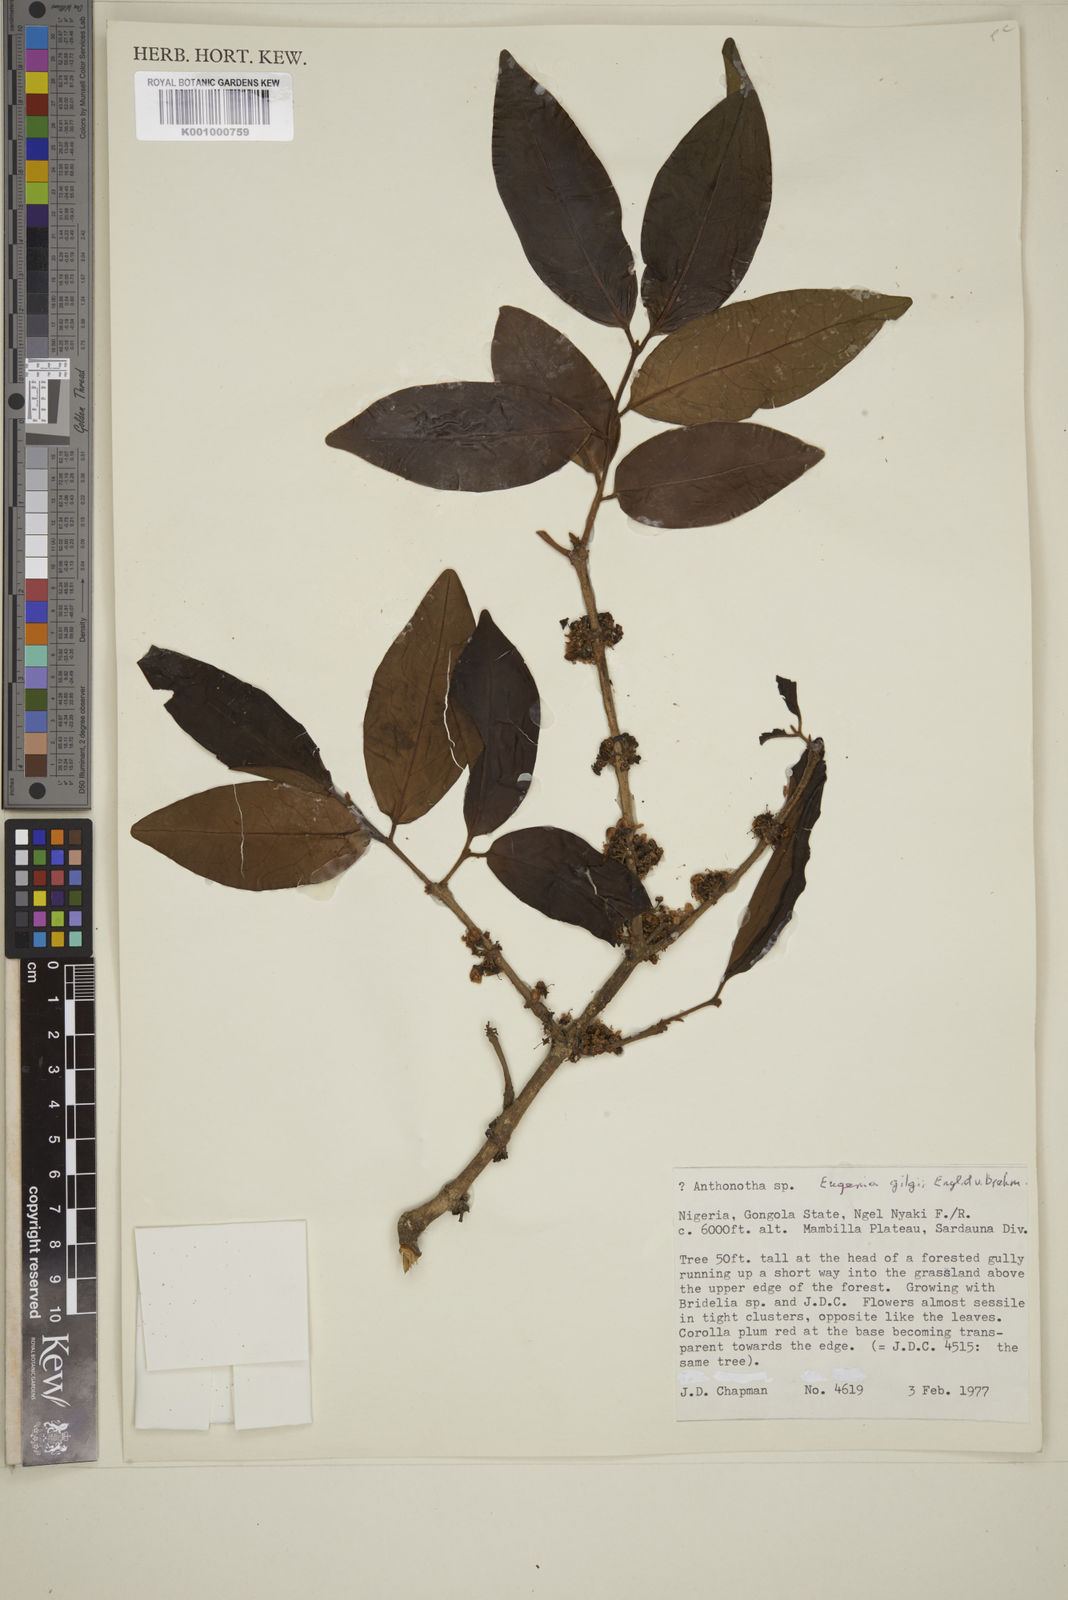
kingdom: Plantae
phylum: Tracheophyta
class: Magnoliopsida
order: Myrtales
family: Myrtaceae
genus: Eugenia
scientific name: Eugenia gilgii
